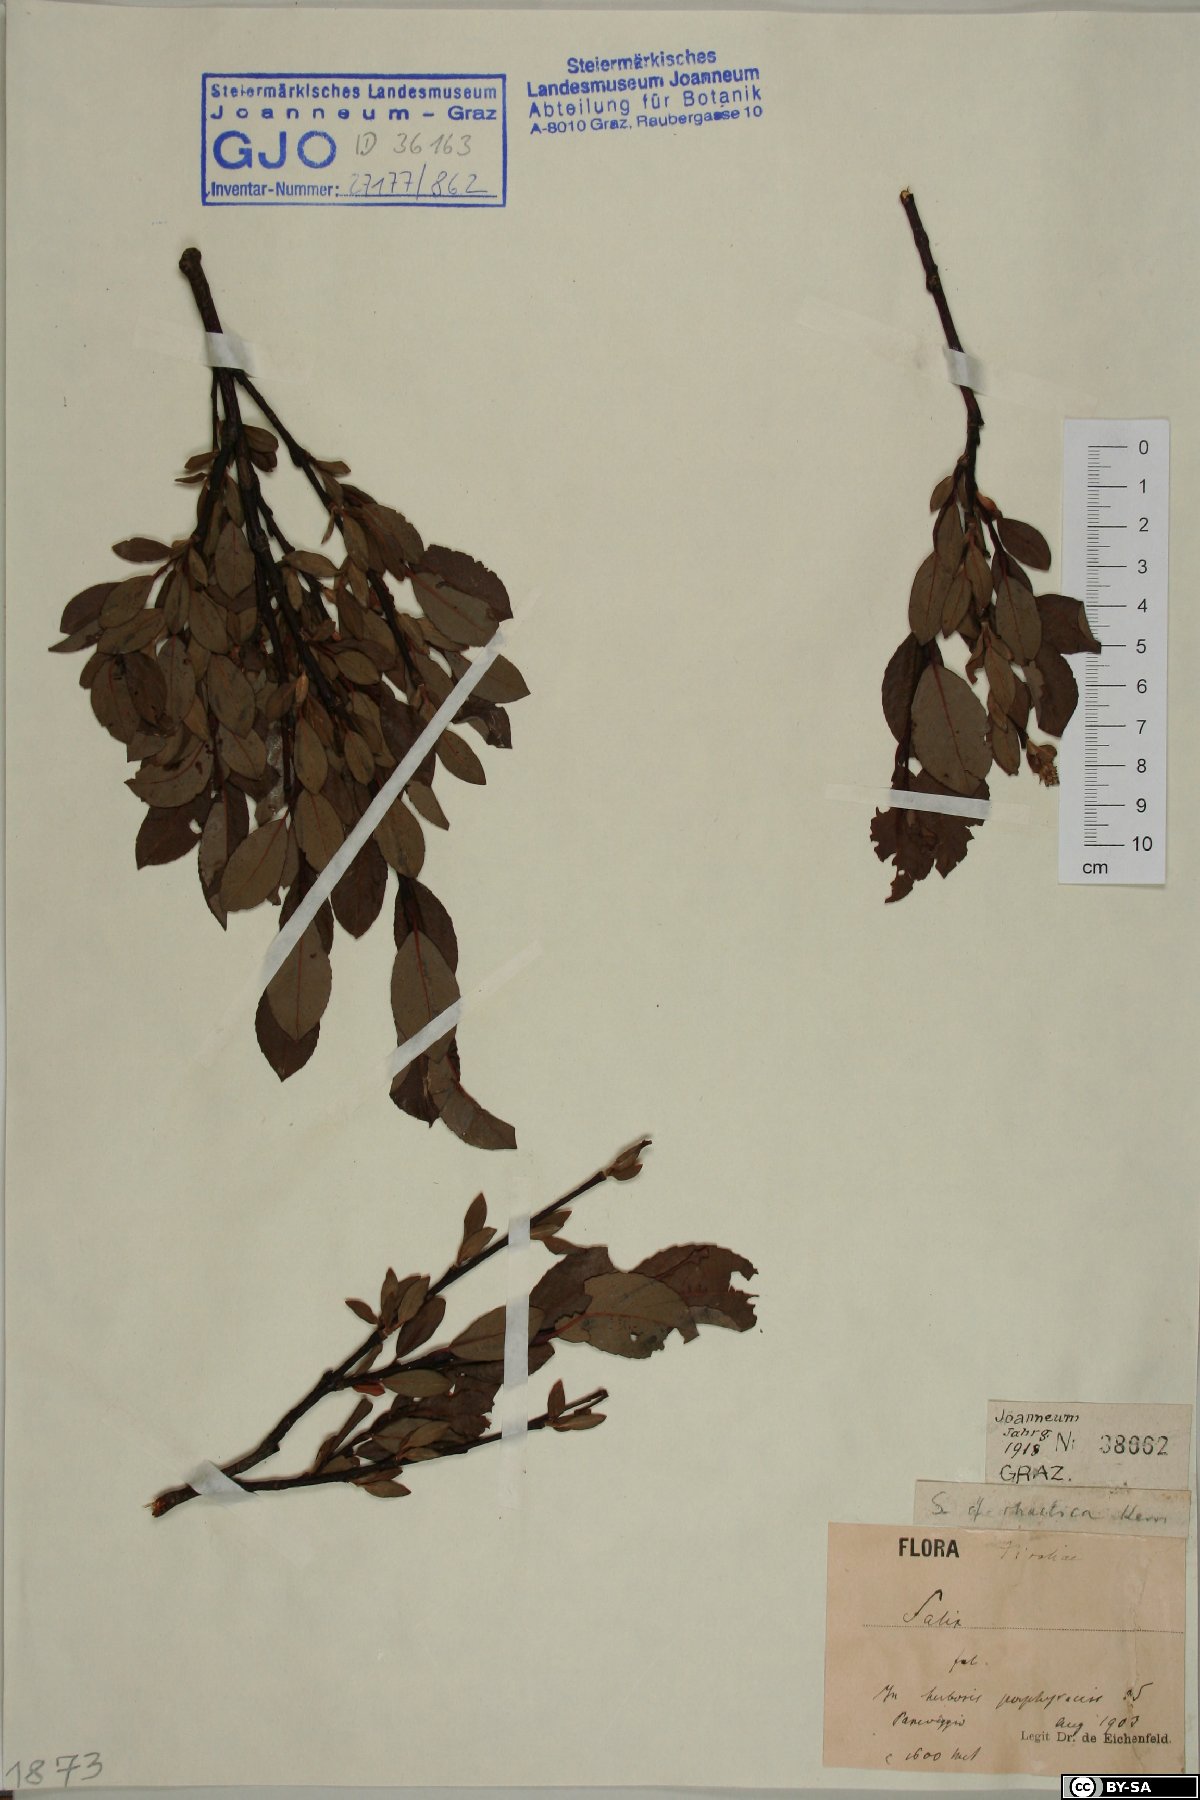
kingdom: Plantae
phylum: Tracheophyta
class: Magnoliopsida
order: Malpighiales
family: Salicaceae
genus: Salix
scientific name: Salix hegetschweileri
